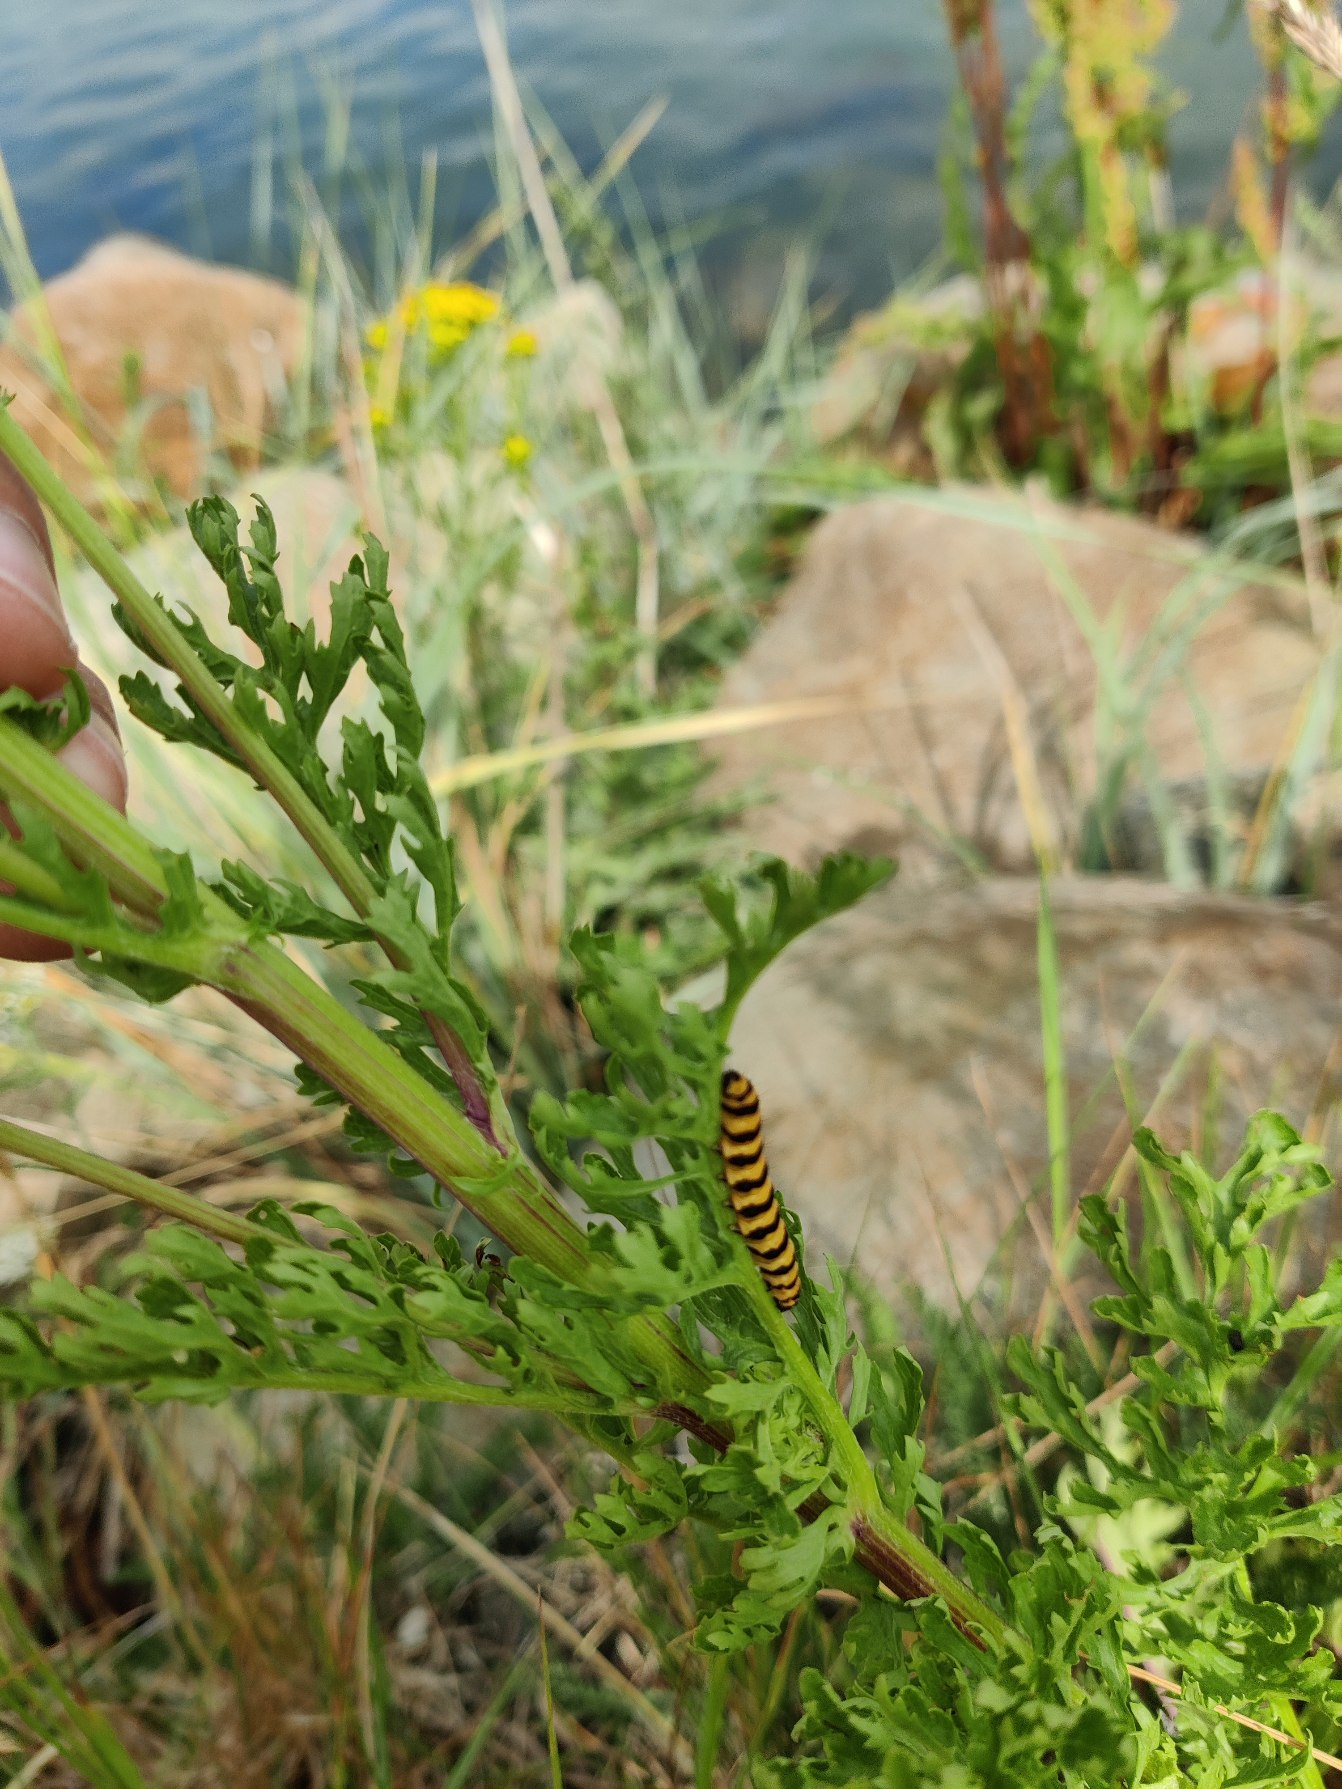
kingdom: Animalia
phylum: Arthropoda
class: Insecta
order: Lepidoptera
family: Erebidae
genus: Tyria
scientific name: Tyria jacobaeae
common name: Blodplet
